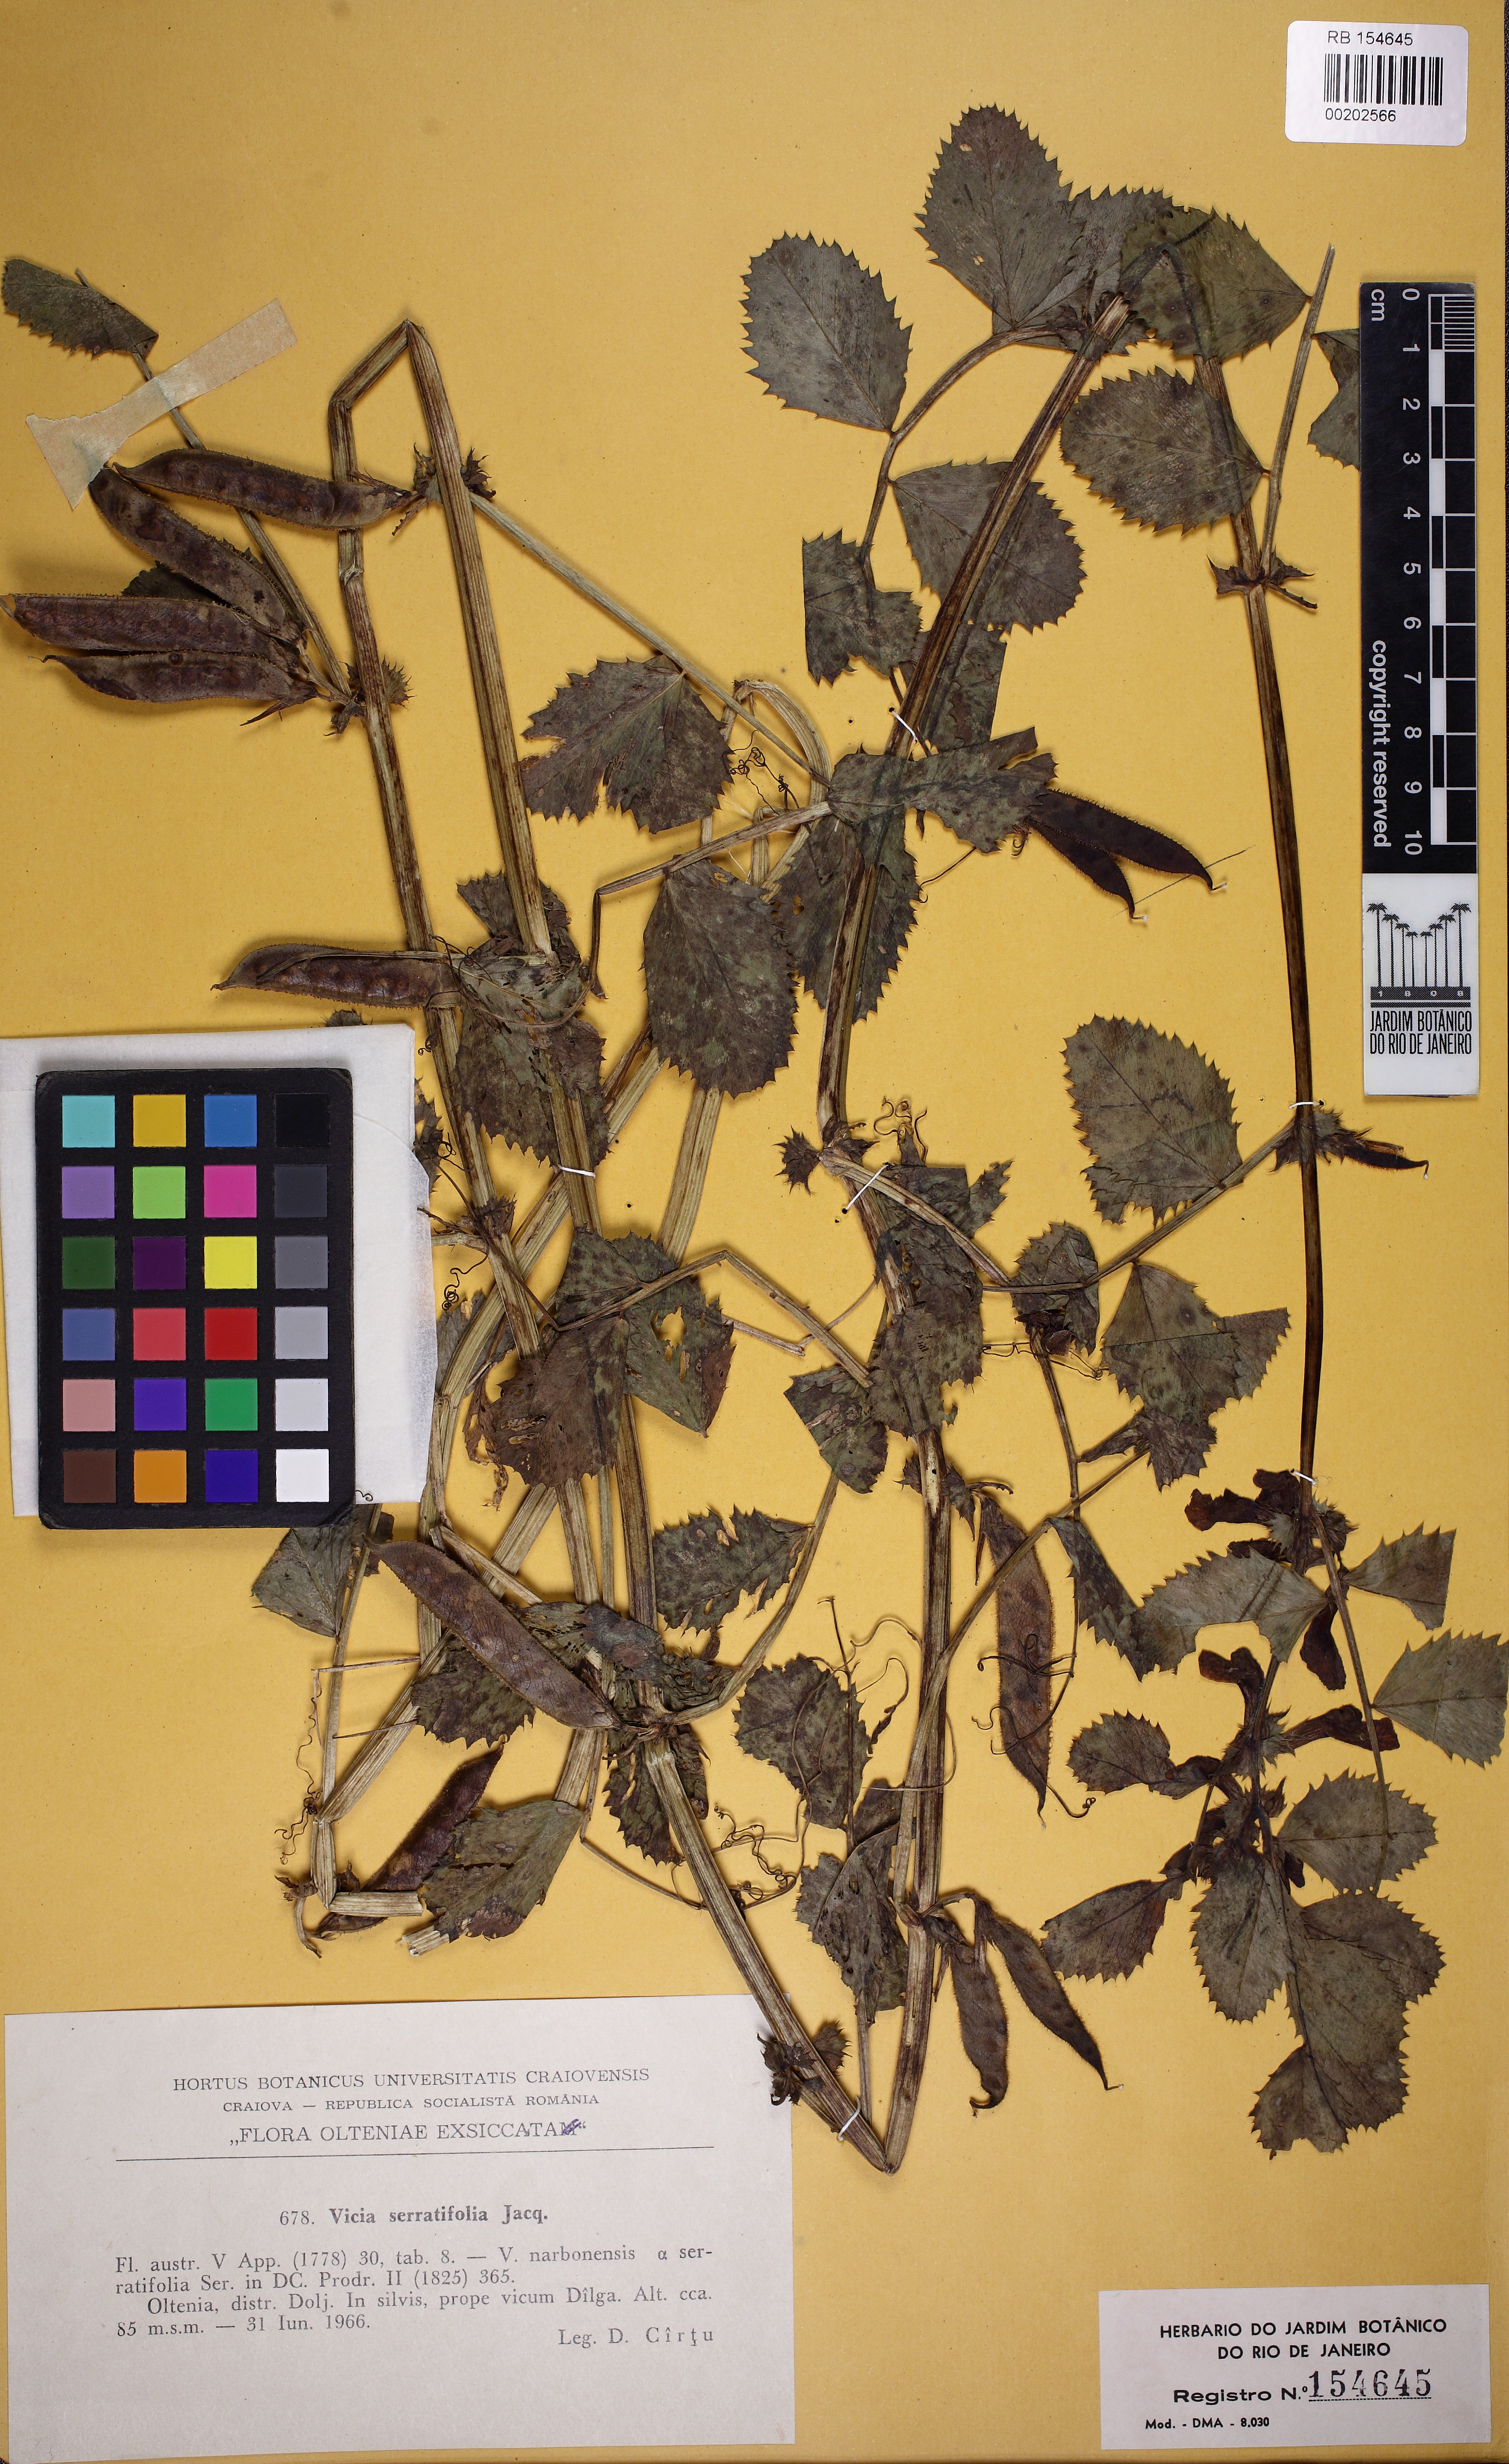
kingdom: Plantae
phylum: Tracheophyta
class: Magnoliopsida
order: Fabales
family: Fabaceae
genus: Vicia
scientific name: Vicia serratifolia
